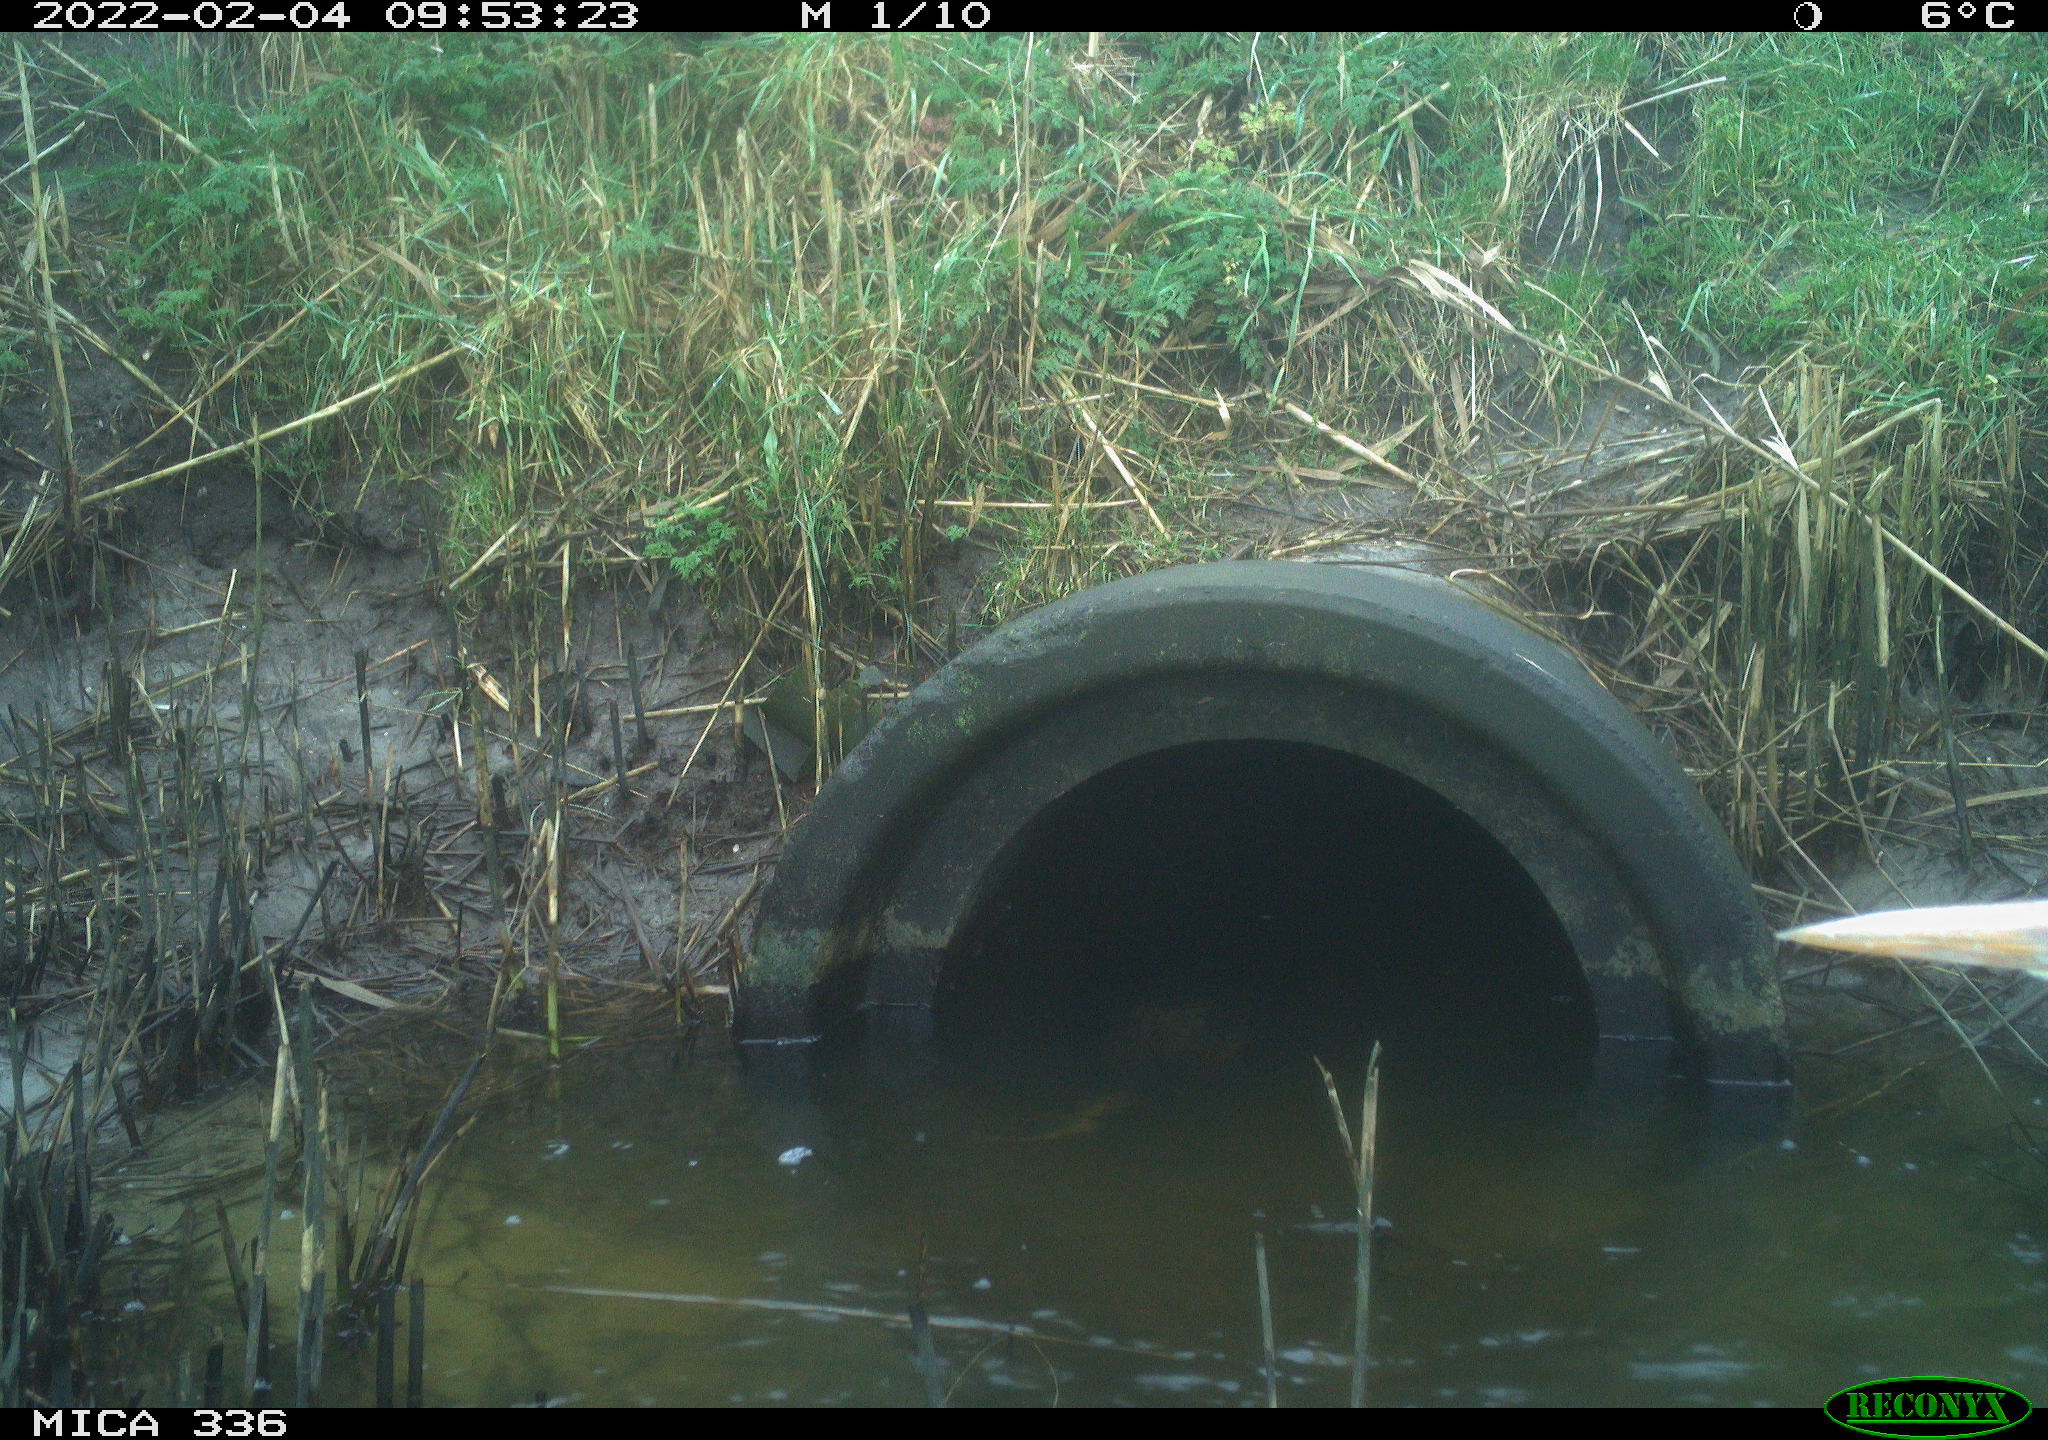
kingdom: Animalia
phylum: Chordata
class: Aves
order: Pelecaniformes
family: Ardeidae
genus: Ardea
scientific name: Ardea cinerea
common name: Grey heron
